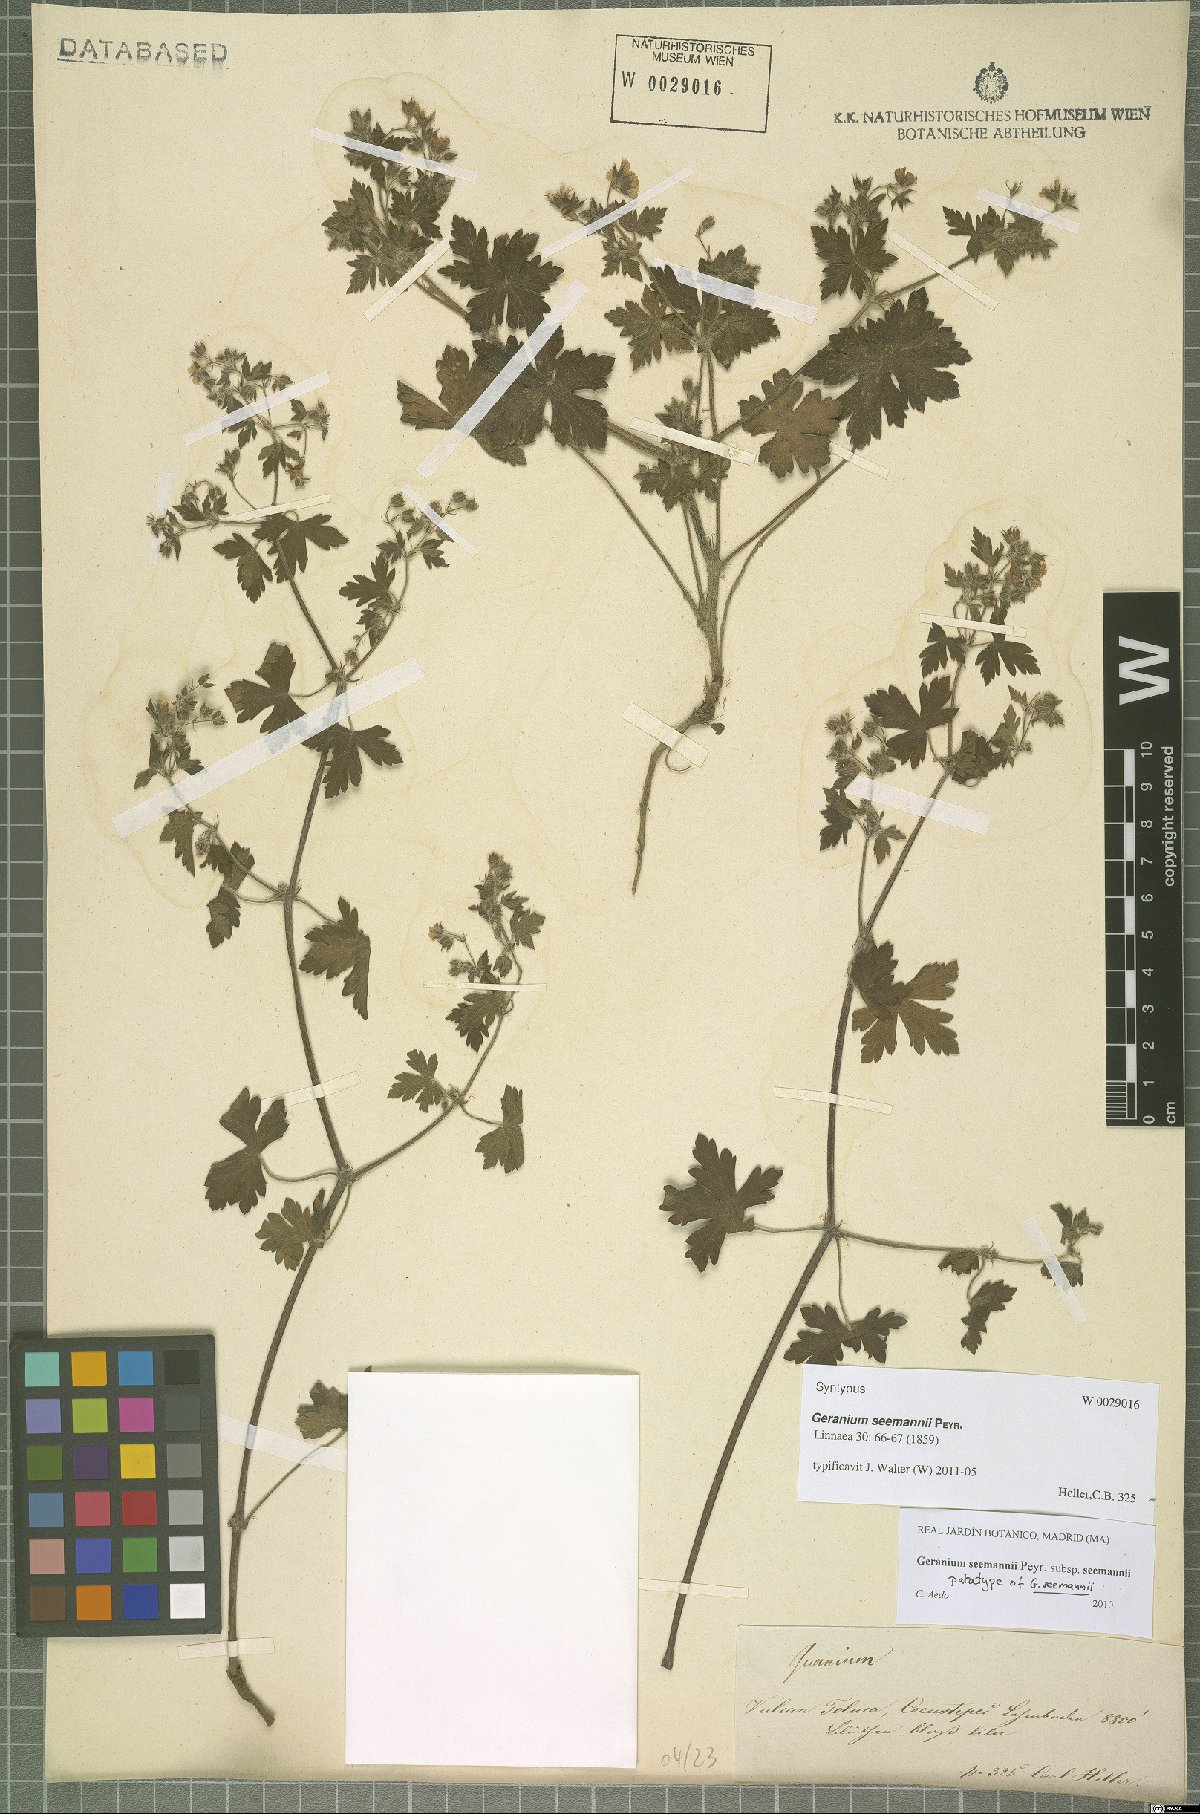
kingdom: Plantae
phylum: Tracheophyta
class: Magnoliopsida
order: Geraniales
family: Geraniaceae
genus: Geranium
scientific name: Geranium seemannii
